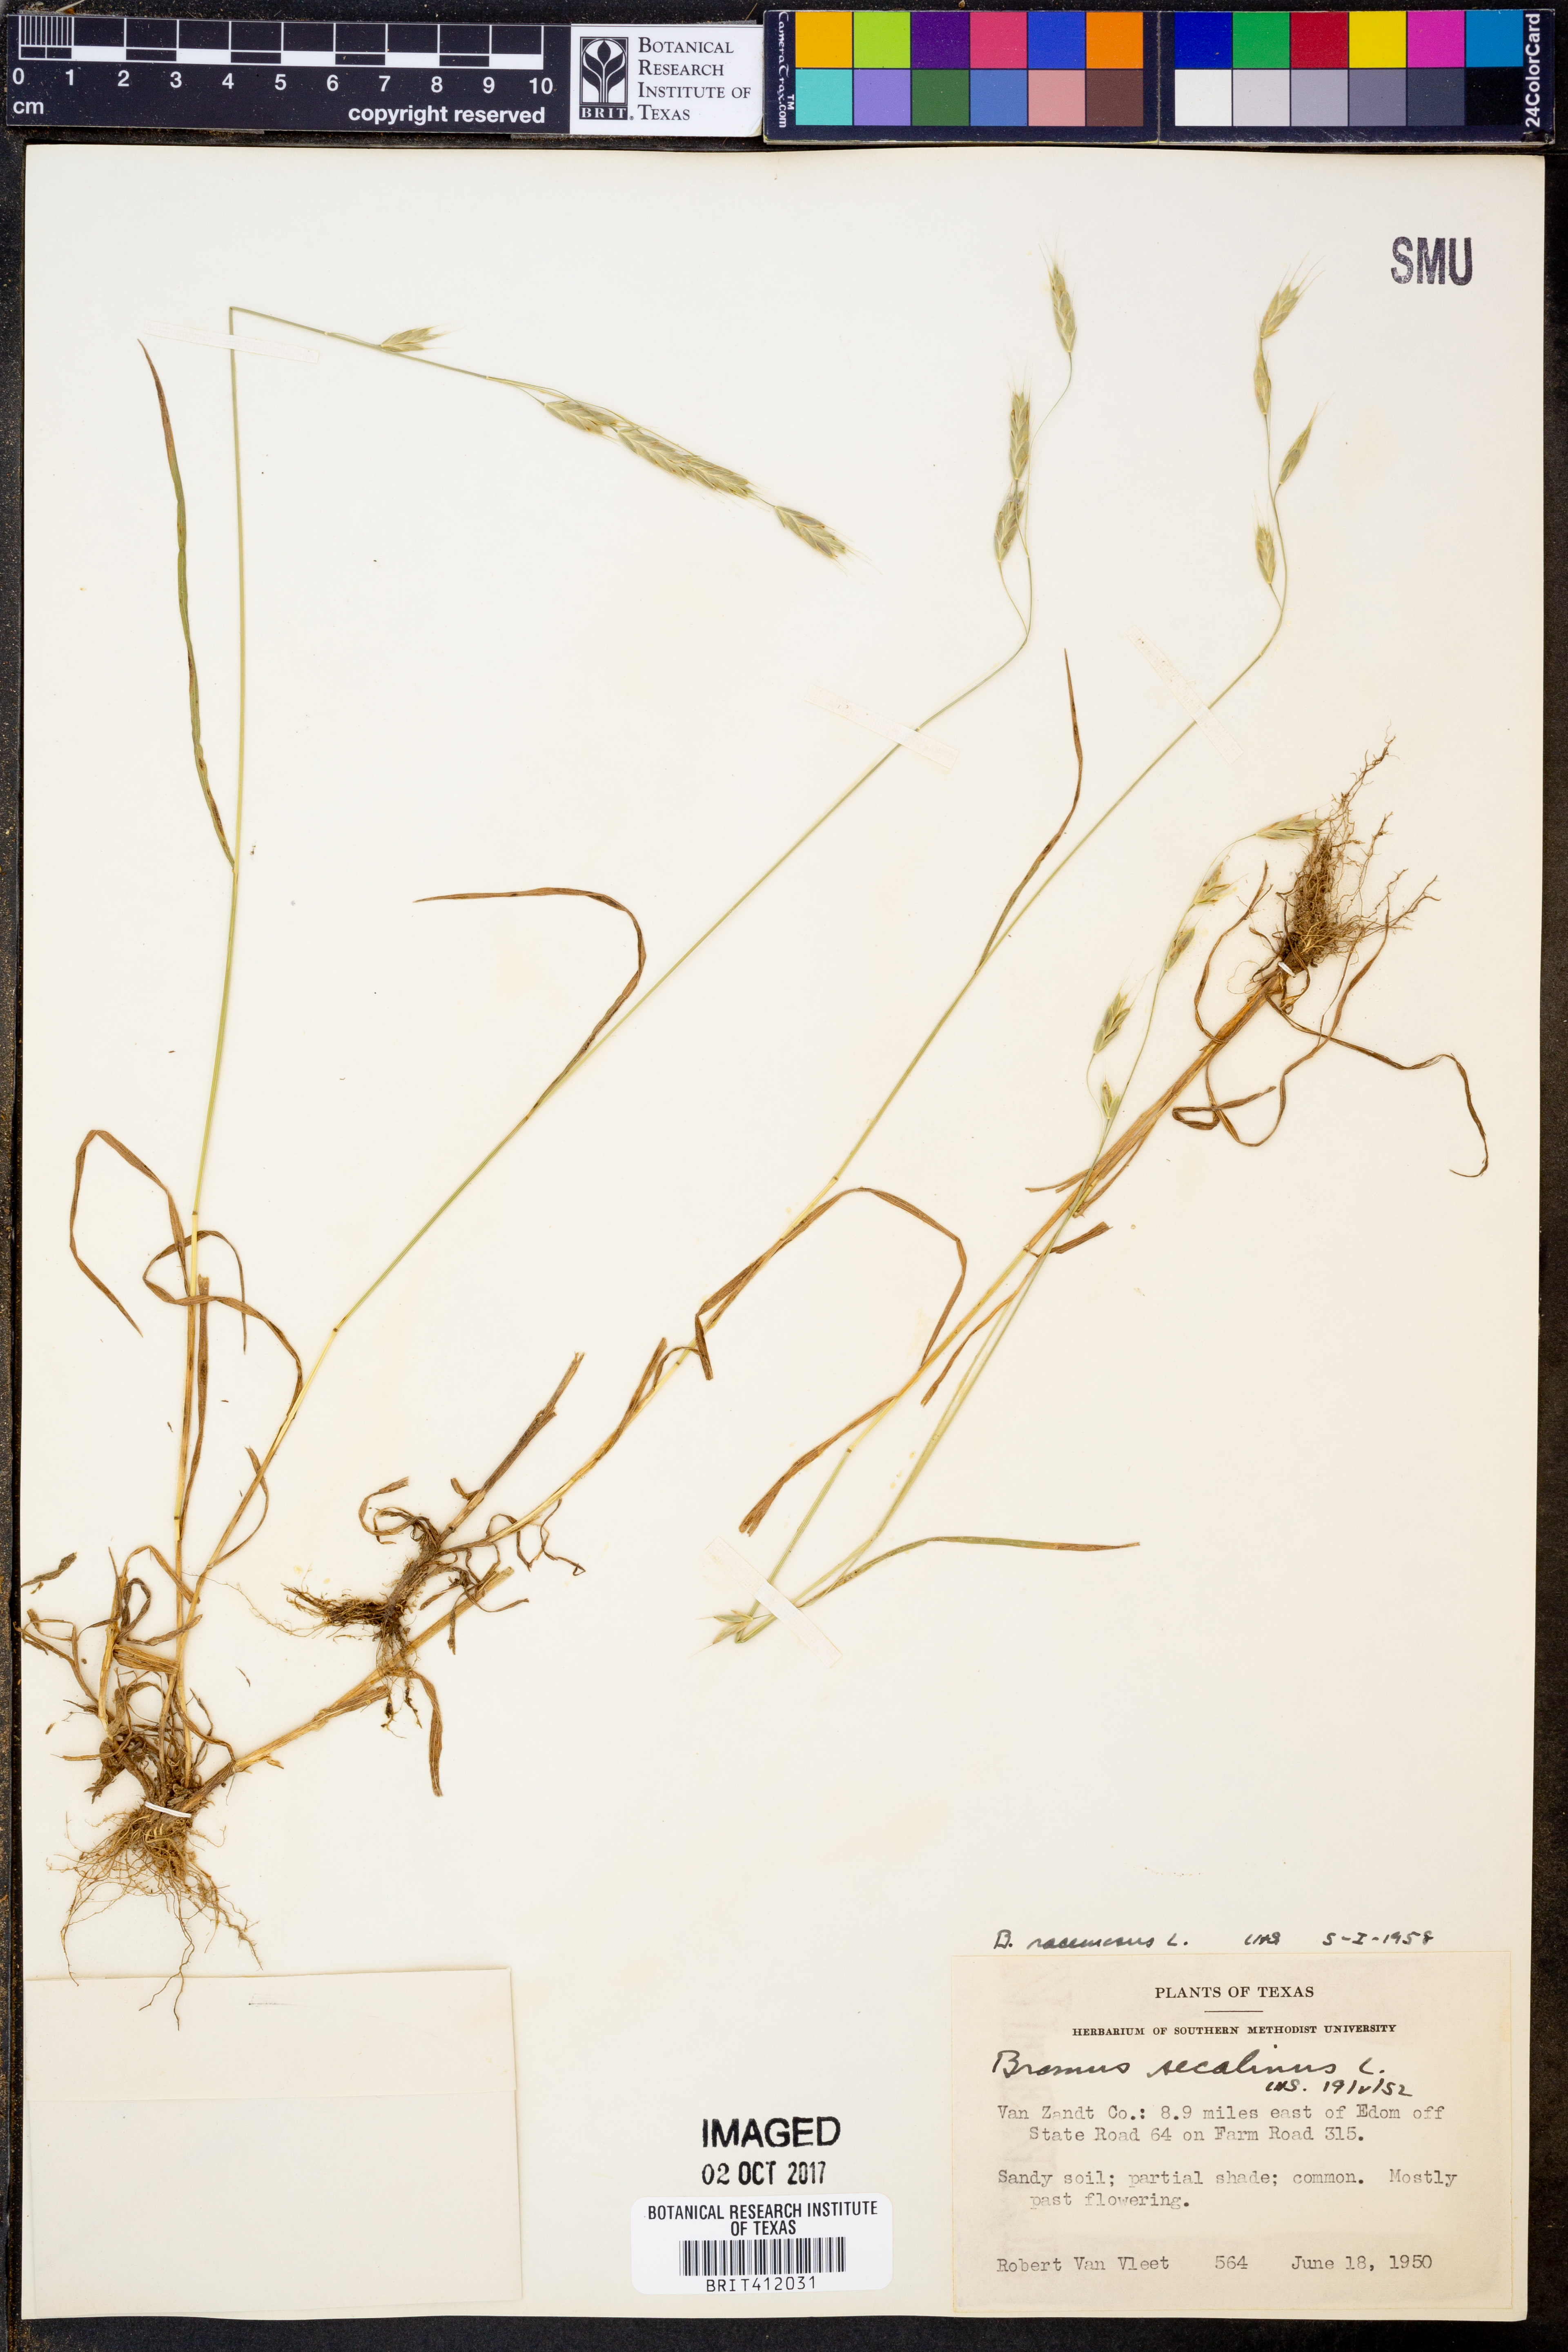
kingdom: Plantae
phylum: Tracheophyta
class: Liliopsida
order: Poales
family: Poaceae
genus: Bromus
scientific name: Bromus racemosus
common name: Bald brome
